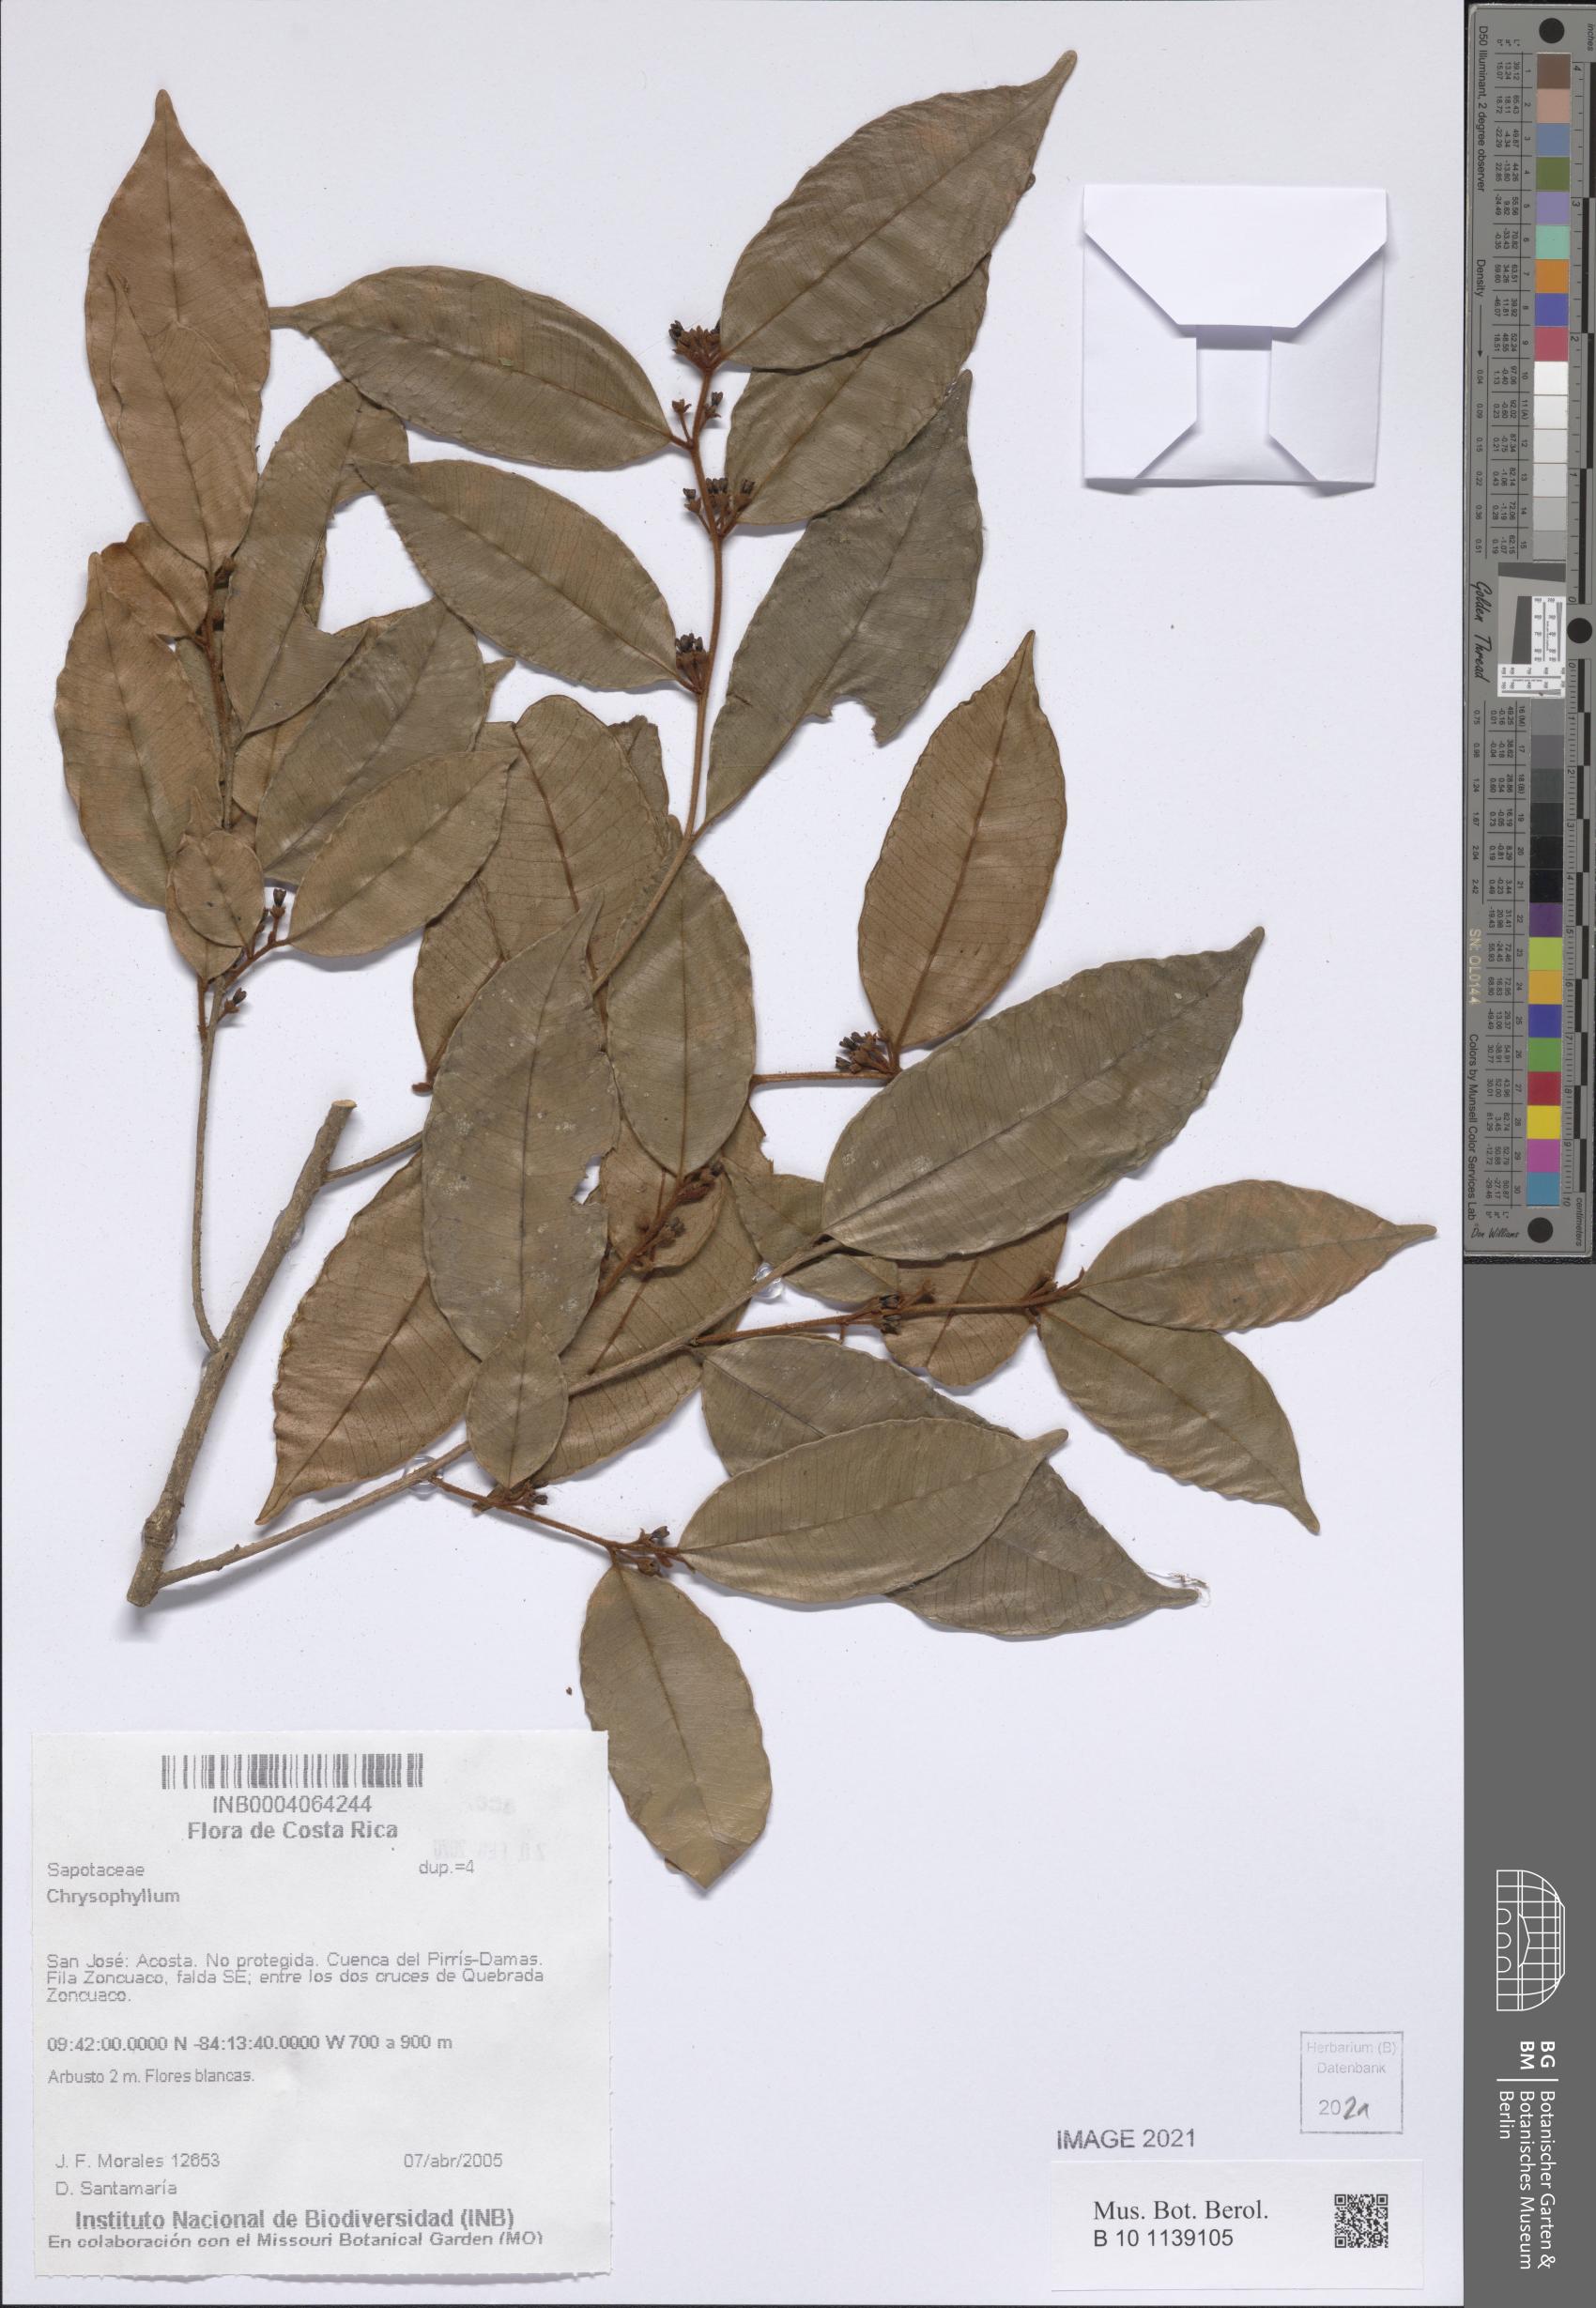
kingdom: Plantae
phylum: Tracheophyta
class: Magnoliopsida
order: Ericales
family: Sapotaceae
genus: Chrysophyllum
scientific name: Chrysophyllum
